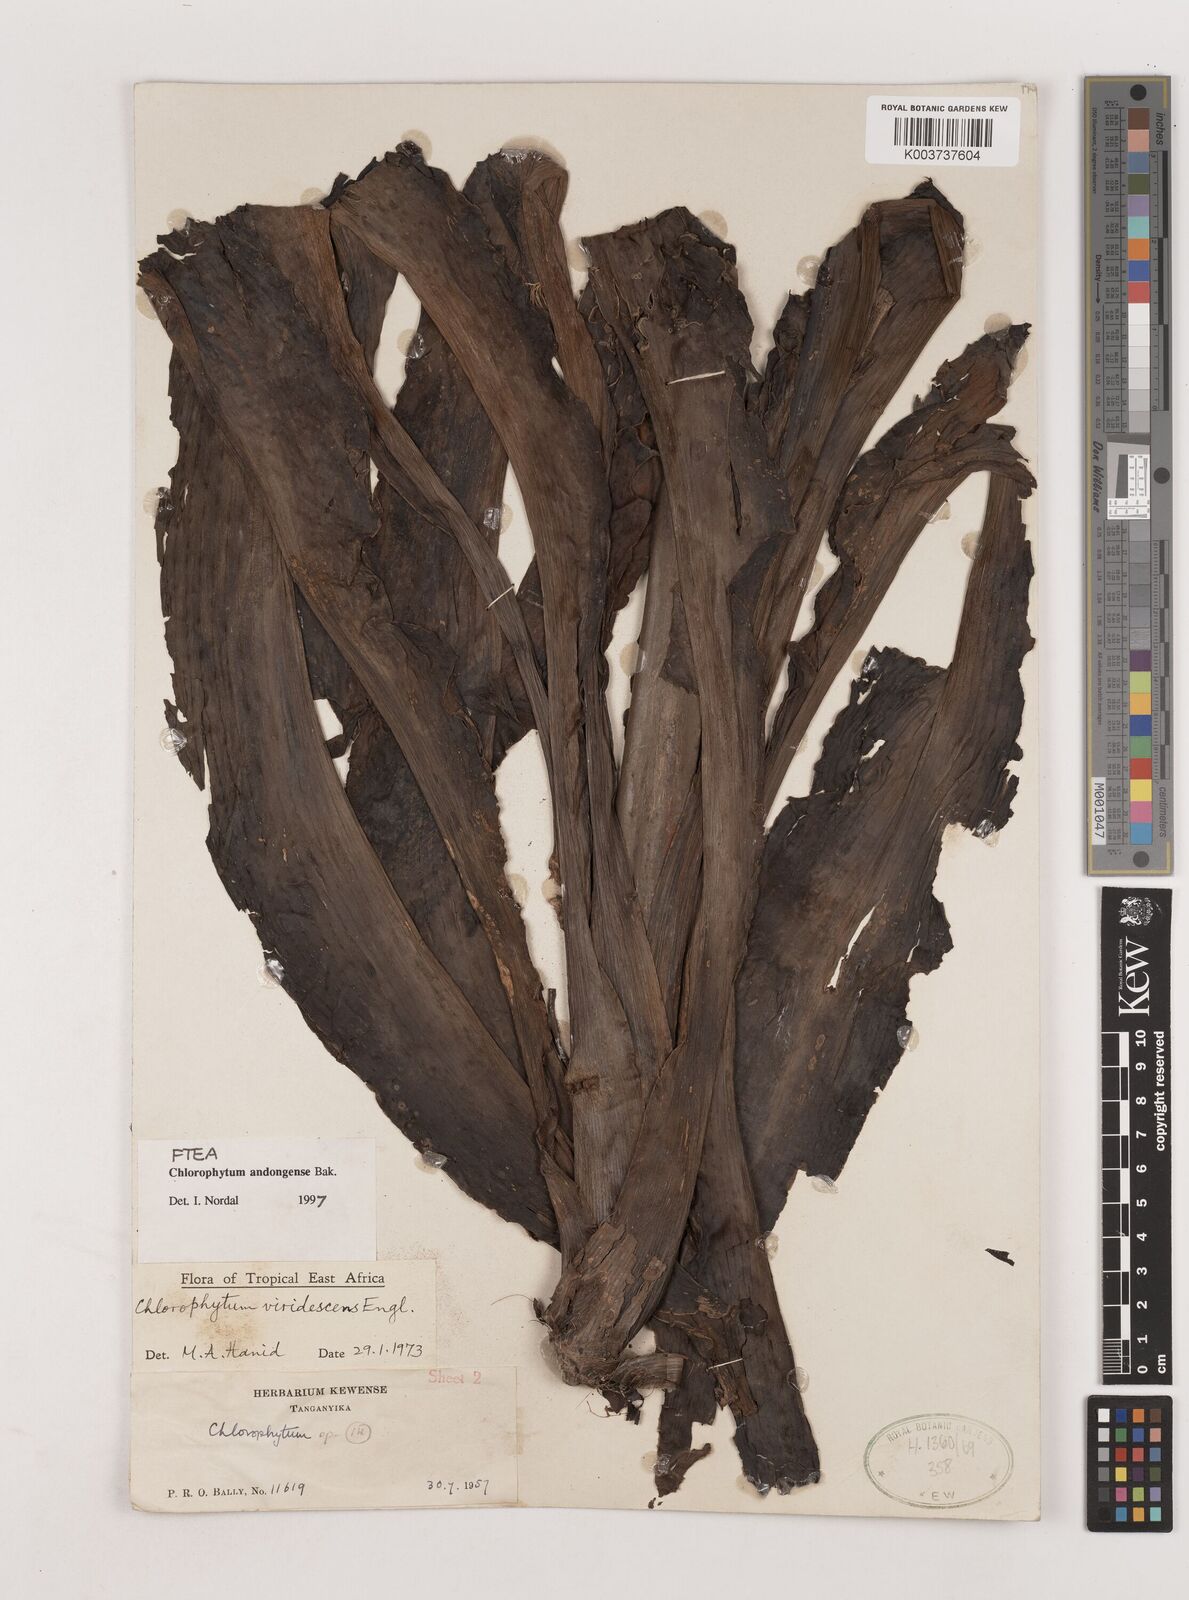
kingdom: Plantae
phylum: Tracheophyta
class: Liliopsida
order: Asparagales
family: Asparagaceae
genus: Chlorophytum
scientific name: Chlorophytum andongense
